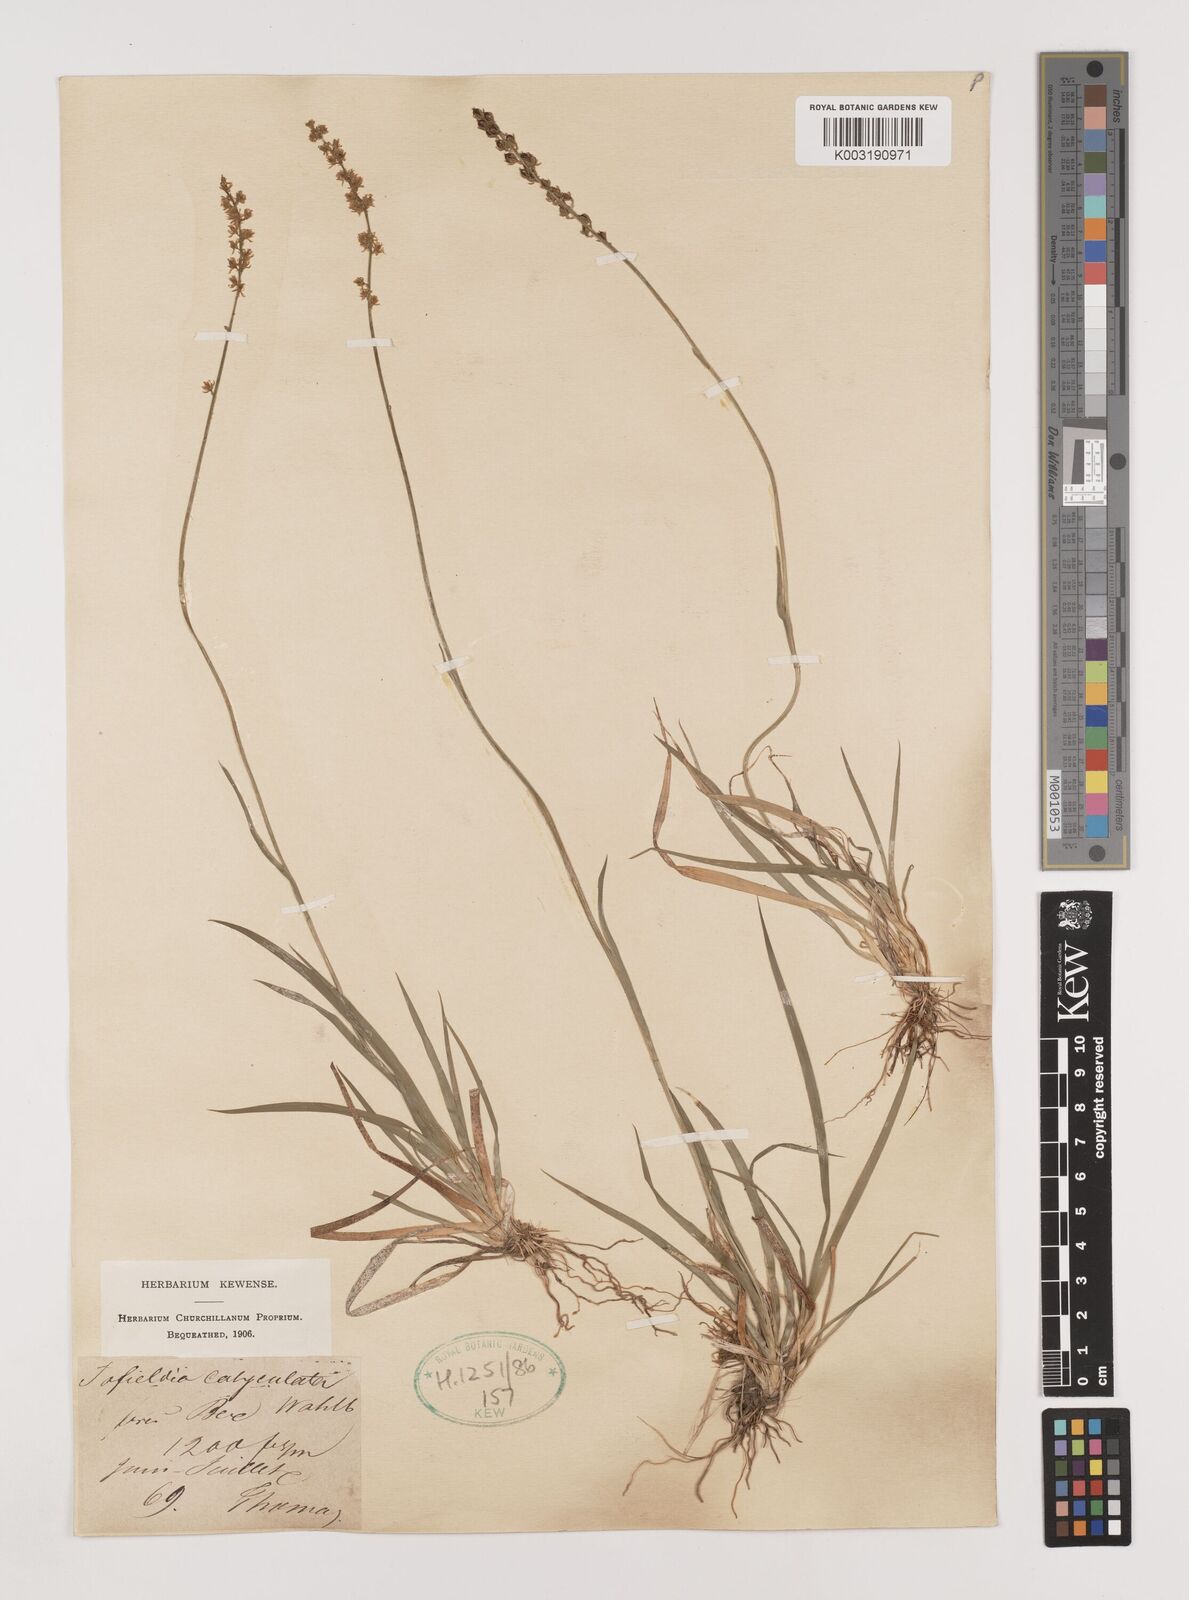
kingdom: Plantae
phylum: Tracheophyta
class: Liliopsida
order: Alismatales
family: Tofieldiaceae
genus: Tofieldia
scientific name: Tofieldia calyculata
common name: German-asphodel
